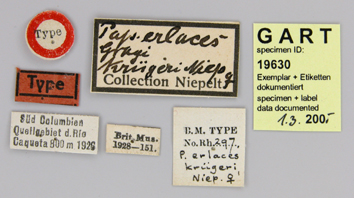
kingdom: Animalia
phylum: Arthropoda
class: Insecta
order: Lepidoptera
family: Papilionidae
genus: Parides
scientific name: Parides erithalion
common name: Variable cattleheart
